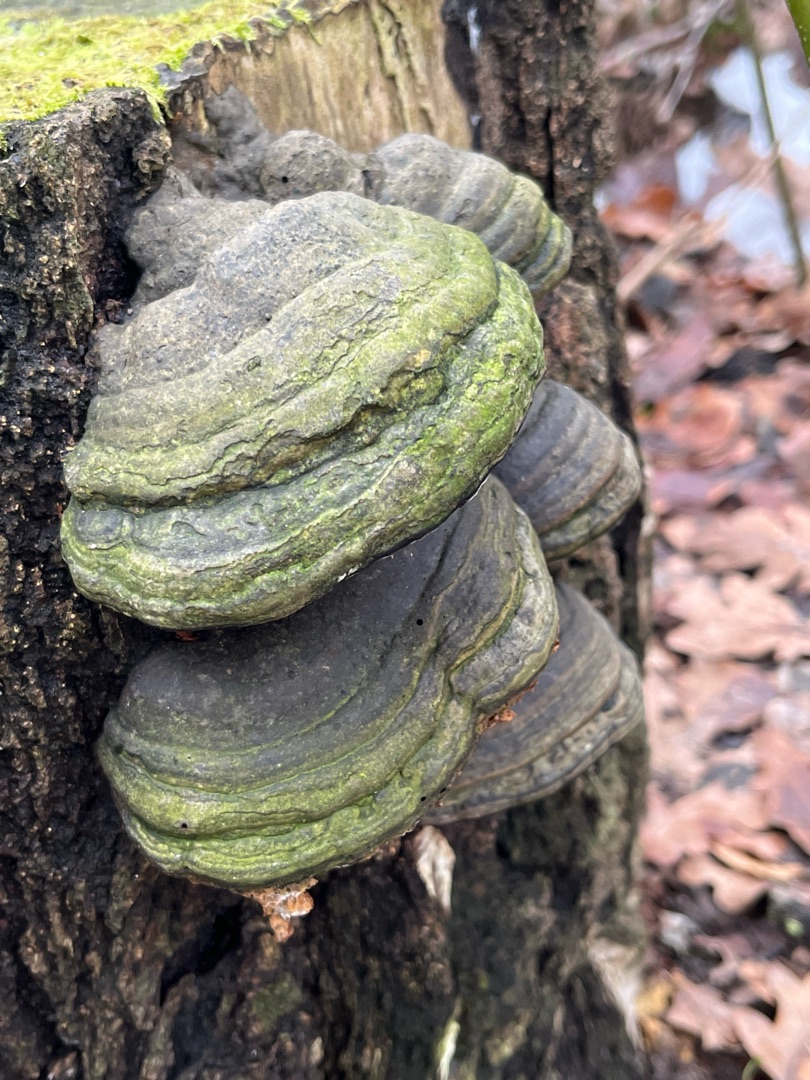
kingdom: Fungi
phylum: Basidiomycota
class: Agaricomycetes
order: Polyporales
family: Polyporaceae
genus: Fomes
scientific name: Fomes fomentarius
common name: Tøndersvamp
